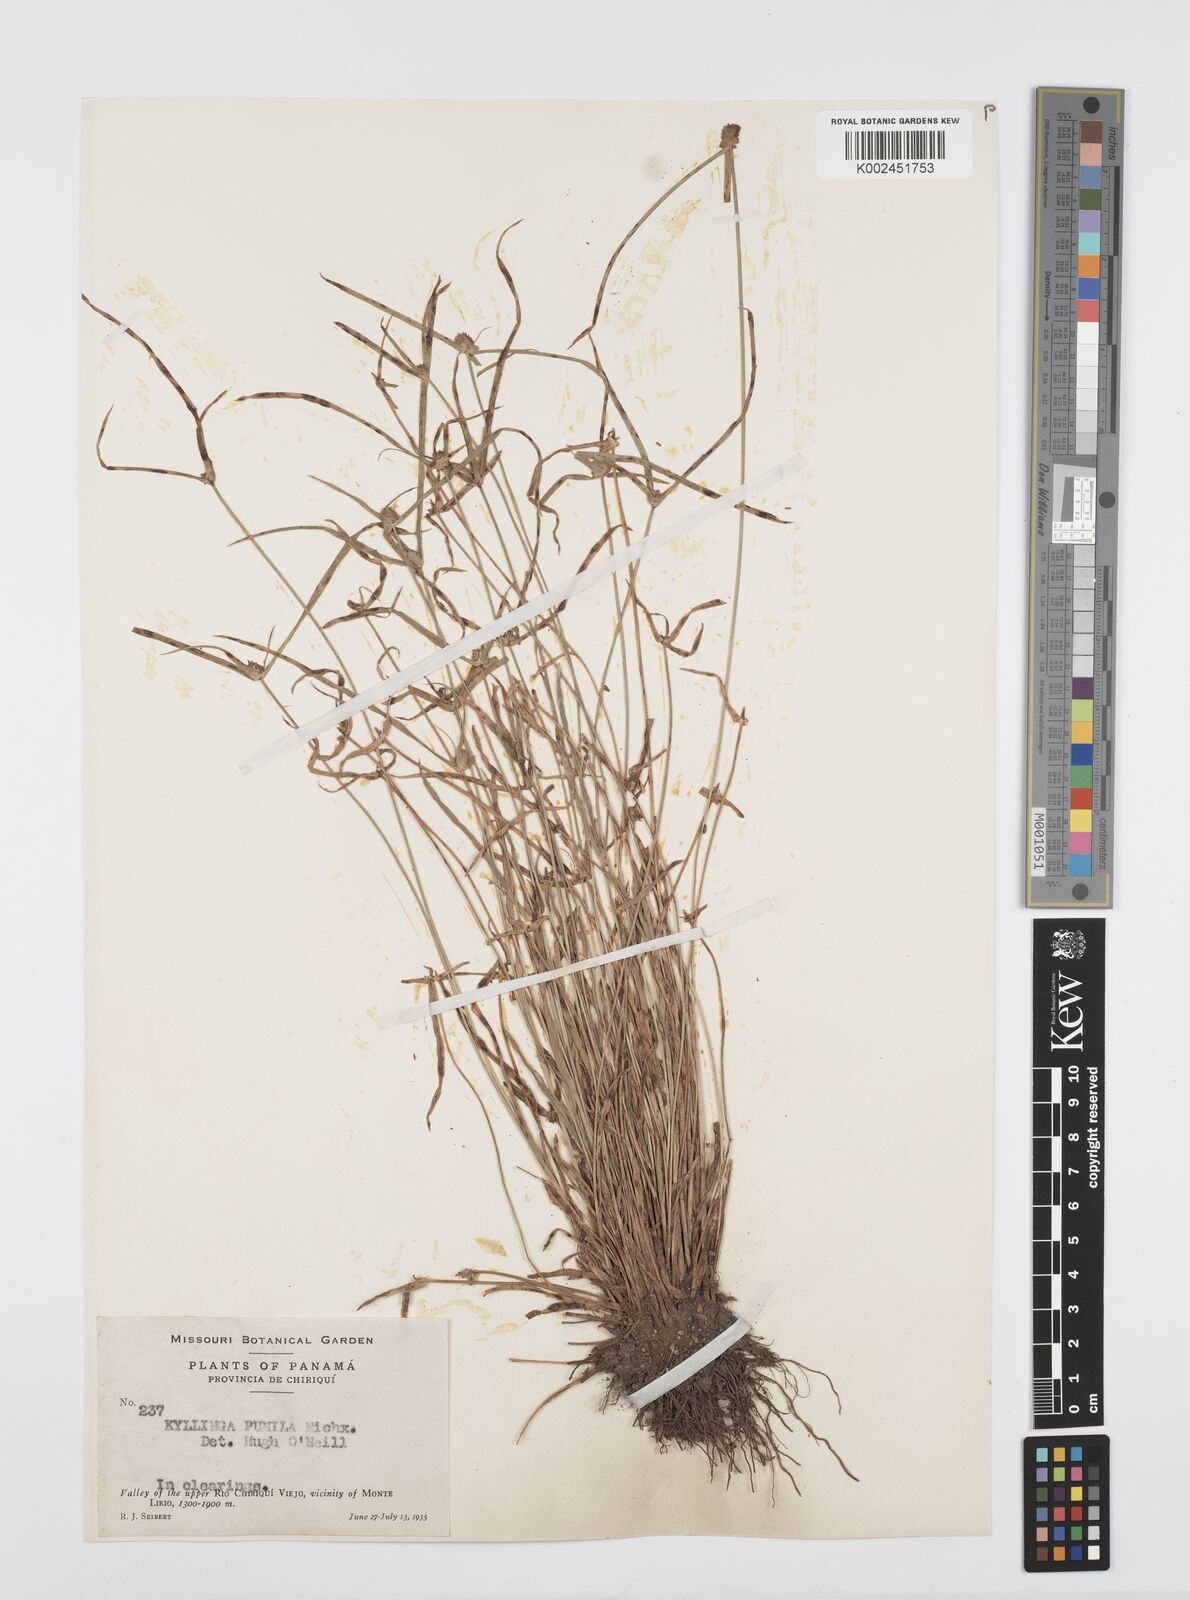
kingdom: Plantae
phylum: Tracheophyta
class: Liliopsida
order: Poales
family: Cyperaceae
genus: Cyperus
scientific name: Cyperus
